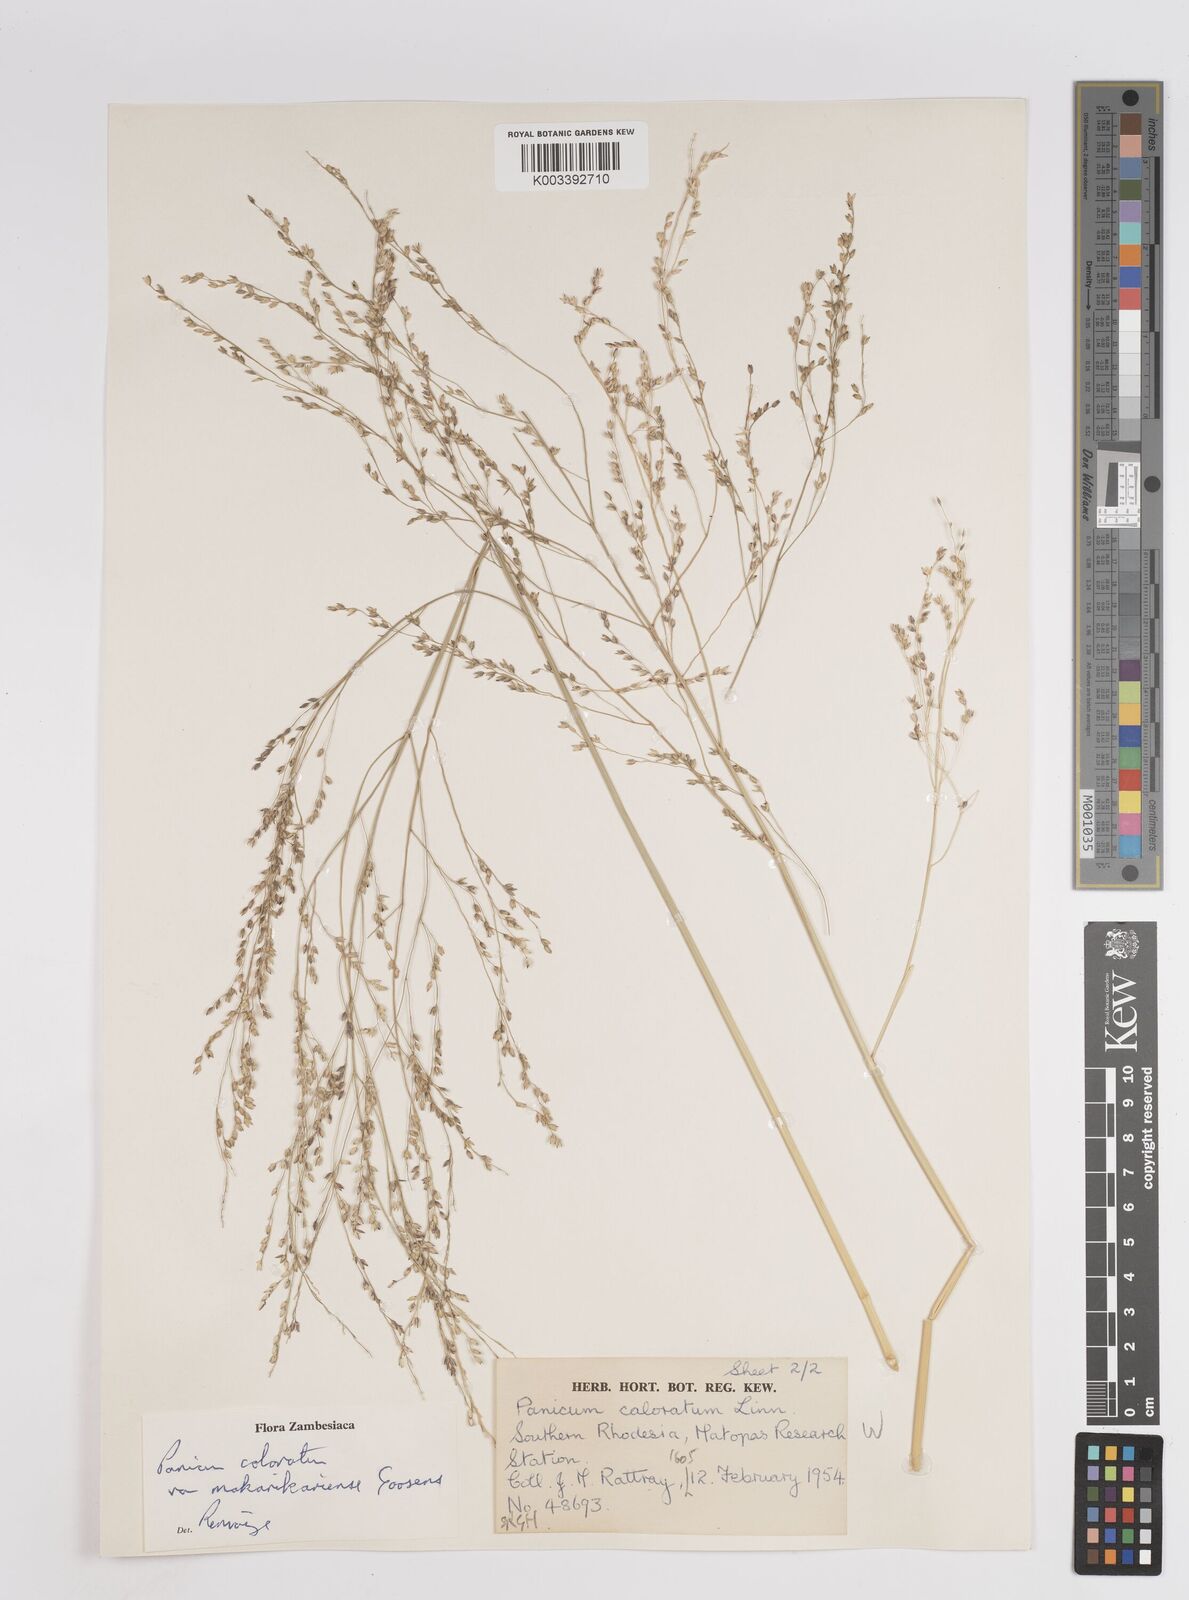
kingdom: Plantae
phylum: Tracheophyta
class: Liliopsida
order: Poales
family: Poaceae
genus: Panicum
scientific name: Panicum coloratum
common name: Kleingrass
